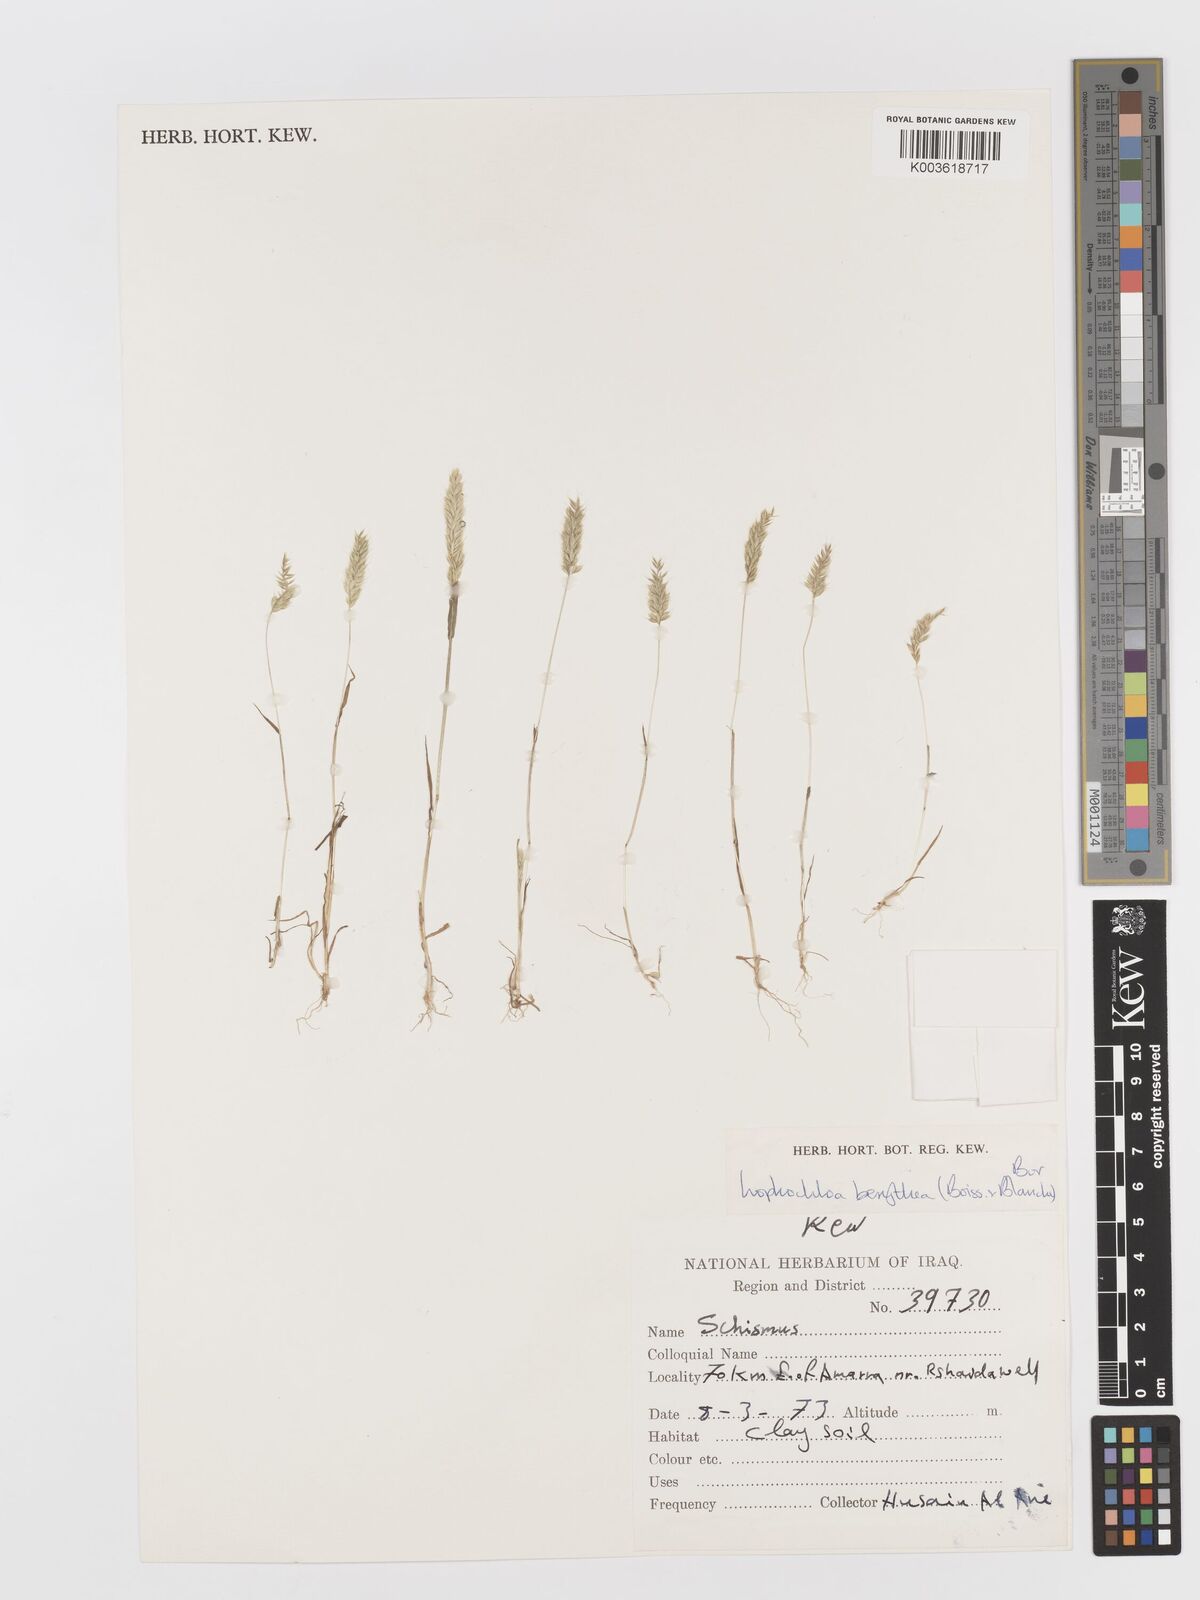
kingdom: Plantae
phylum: Tracheophyta
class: Liliopsida
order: Poales
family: Poaceae
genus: Rostraria
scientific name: Rostraria smyrnaea
